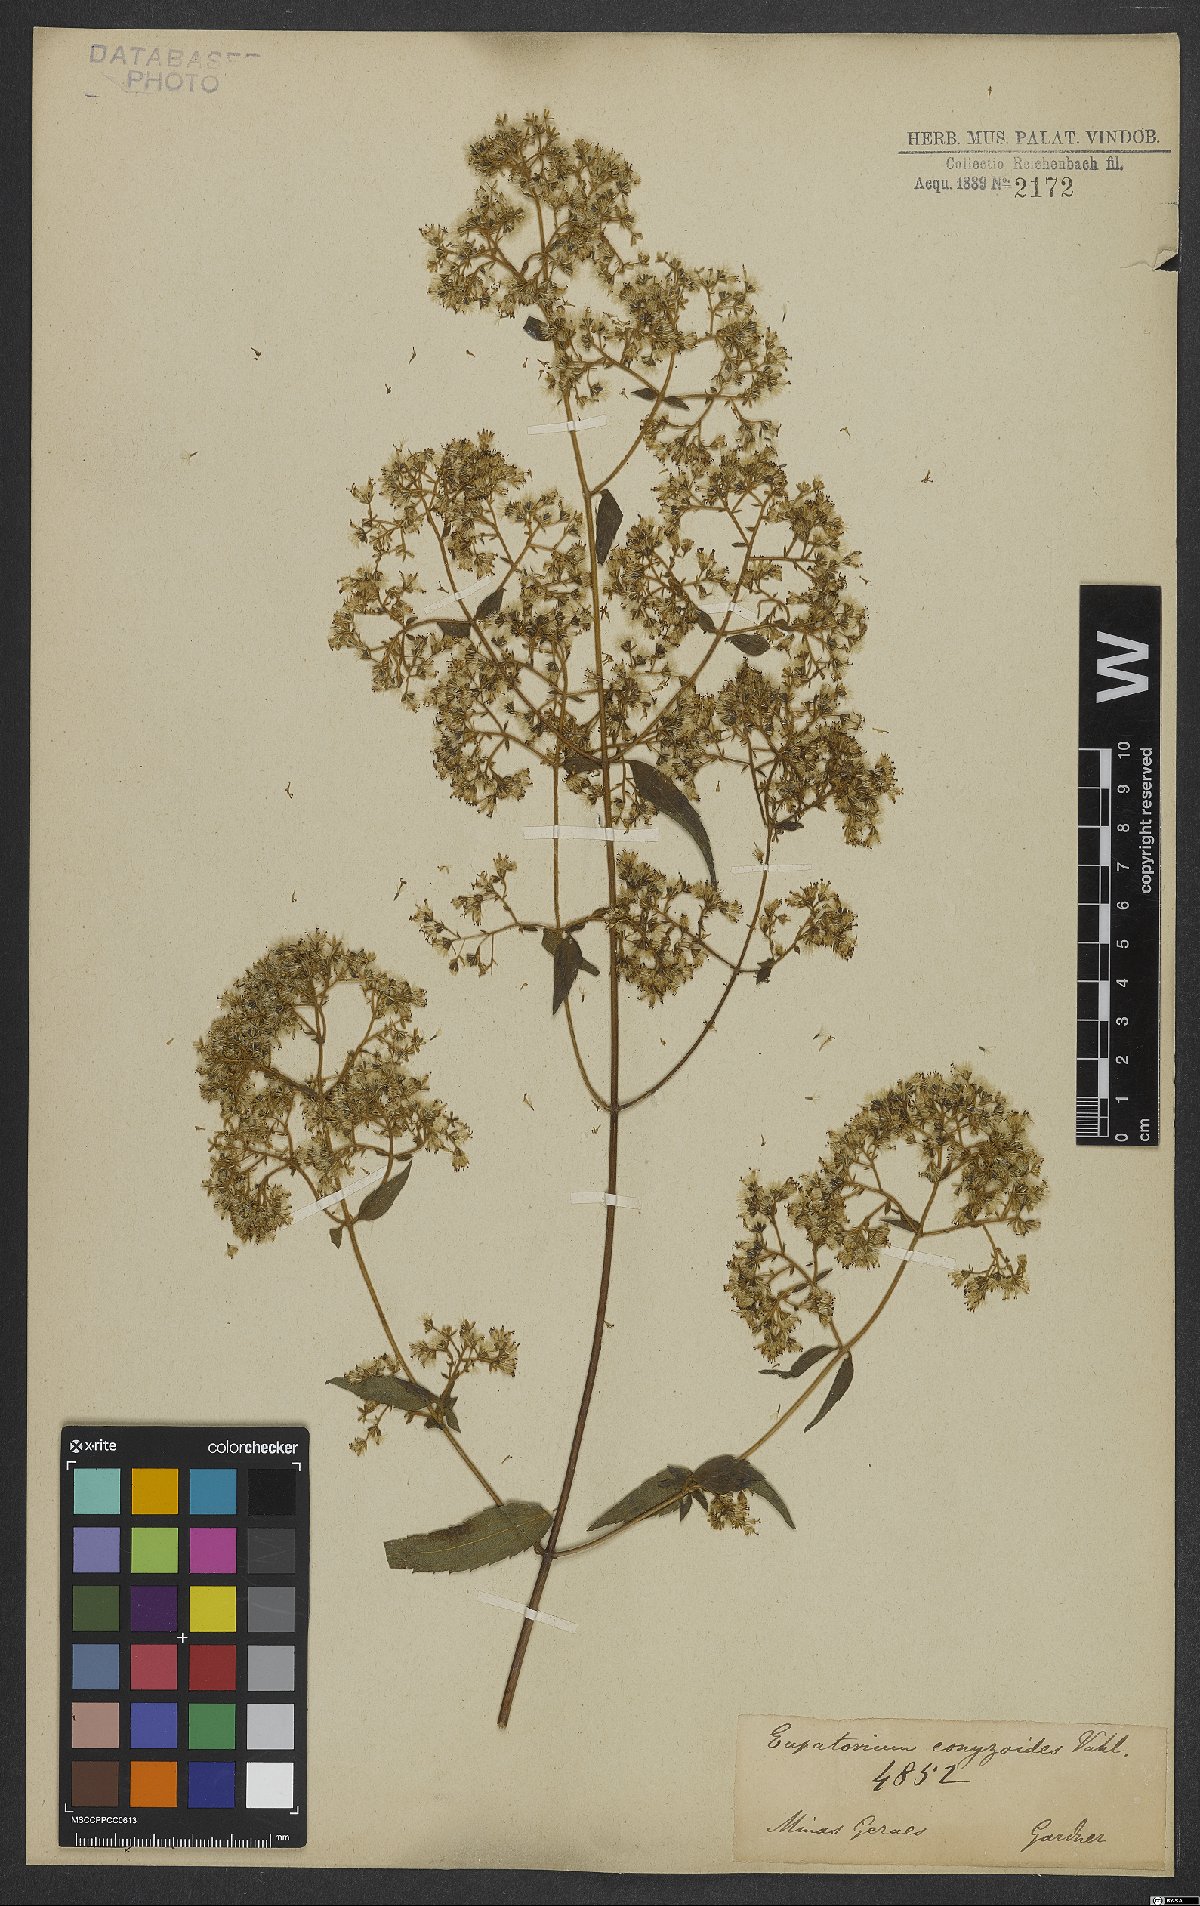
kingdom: Plantae
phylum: Tracheophyta
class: Magnoliopsida
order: Asterales
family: Asteraceae
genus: Chromolaena
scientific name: Chromolaena odorata
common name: Siamweed
